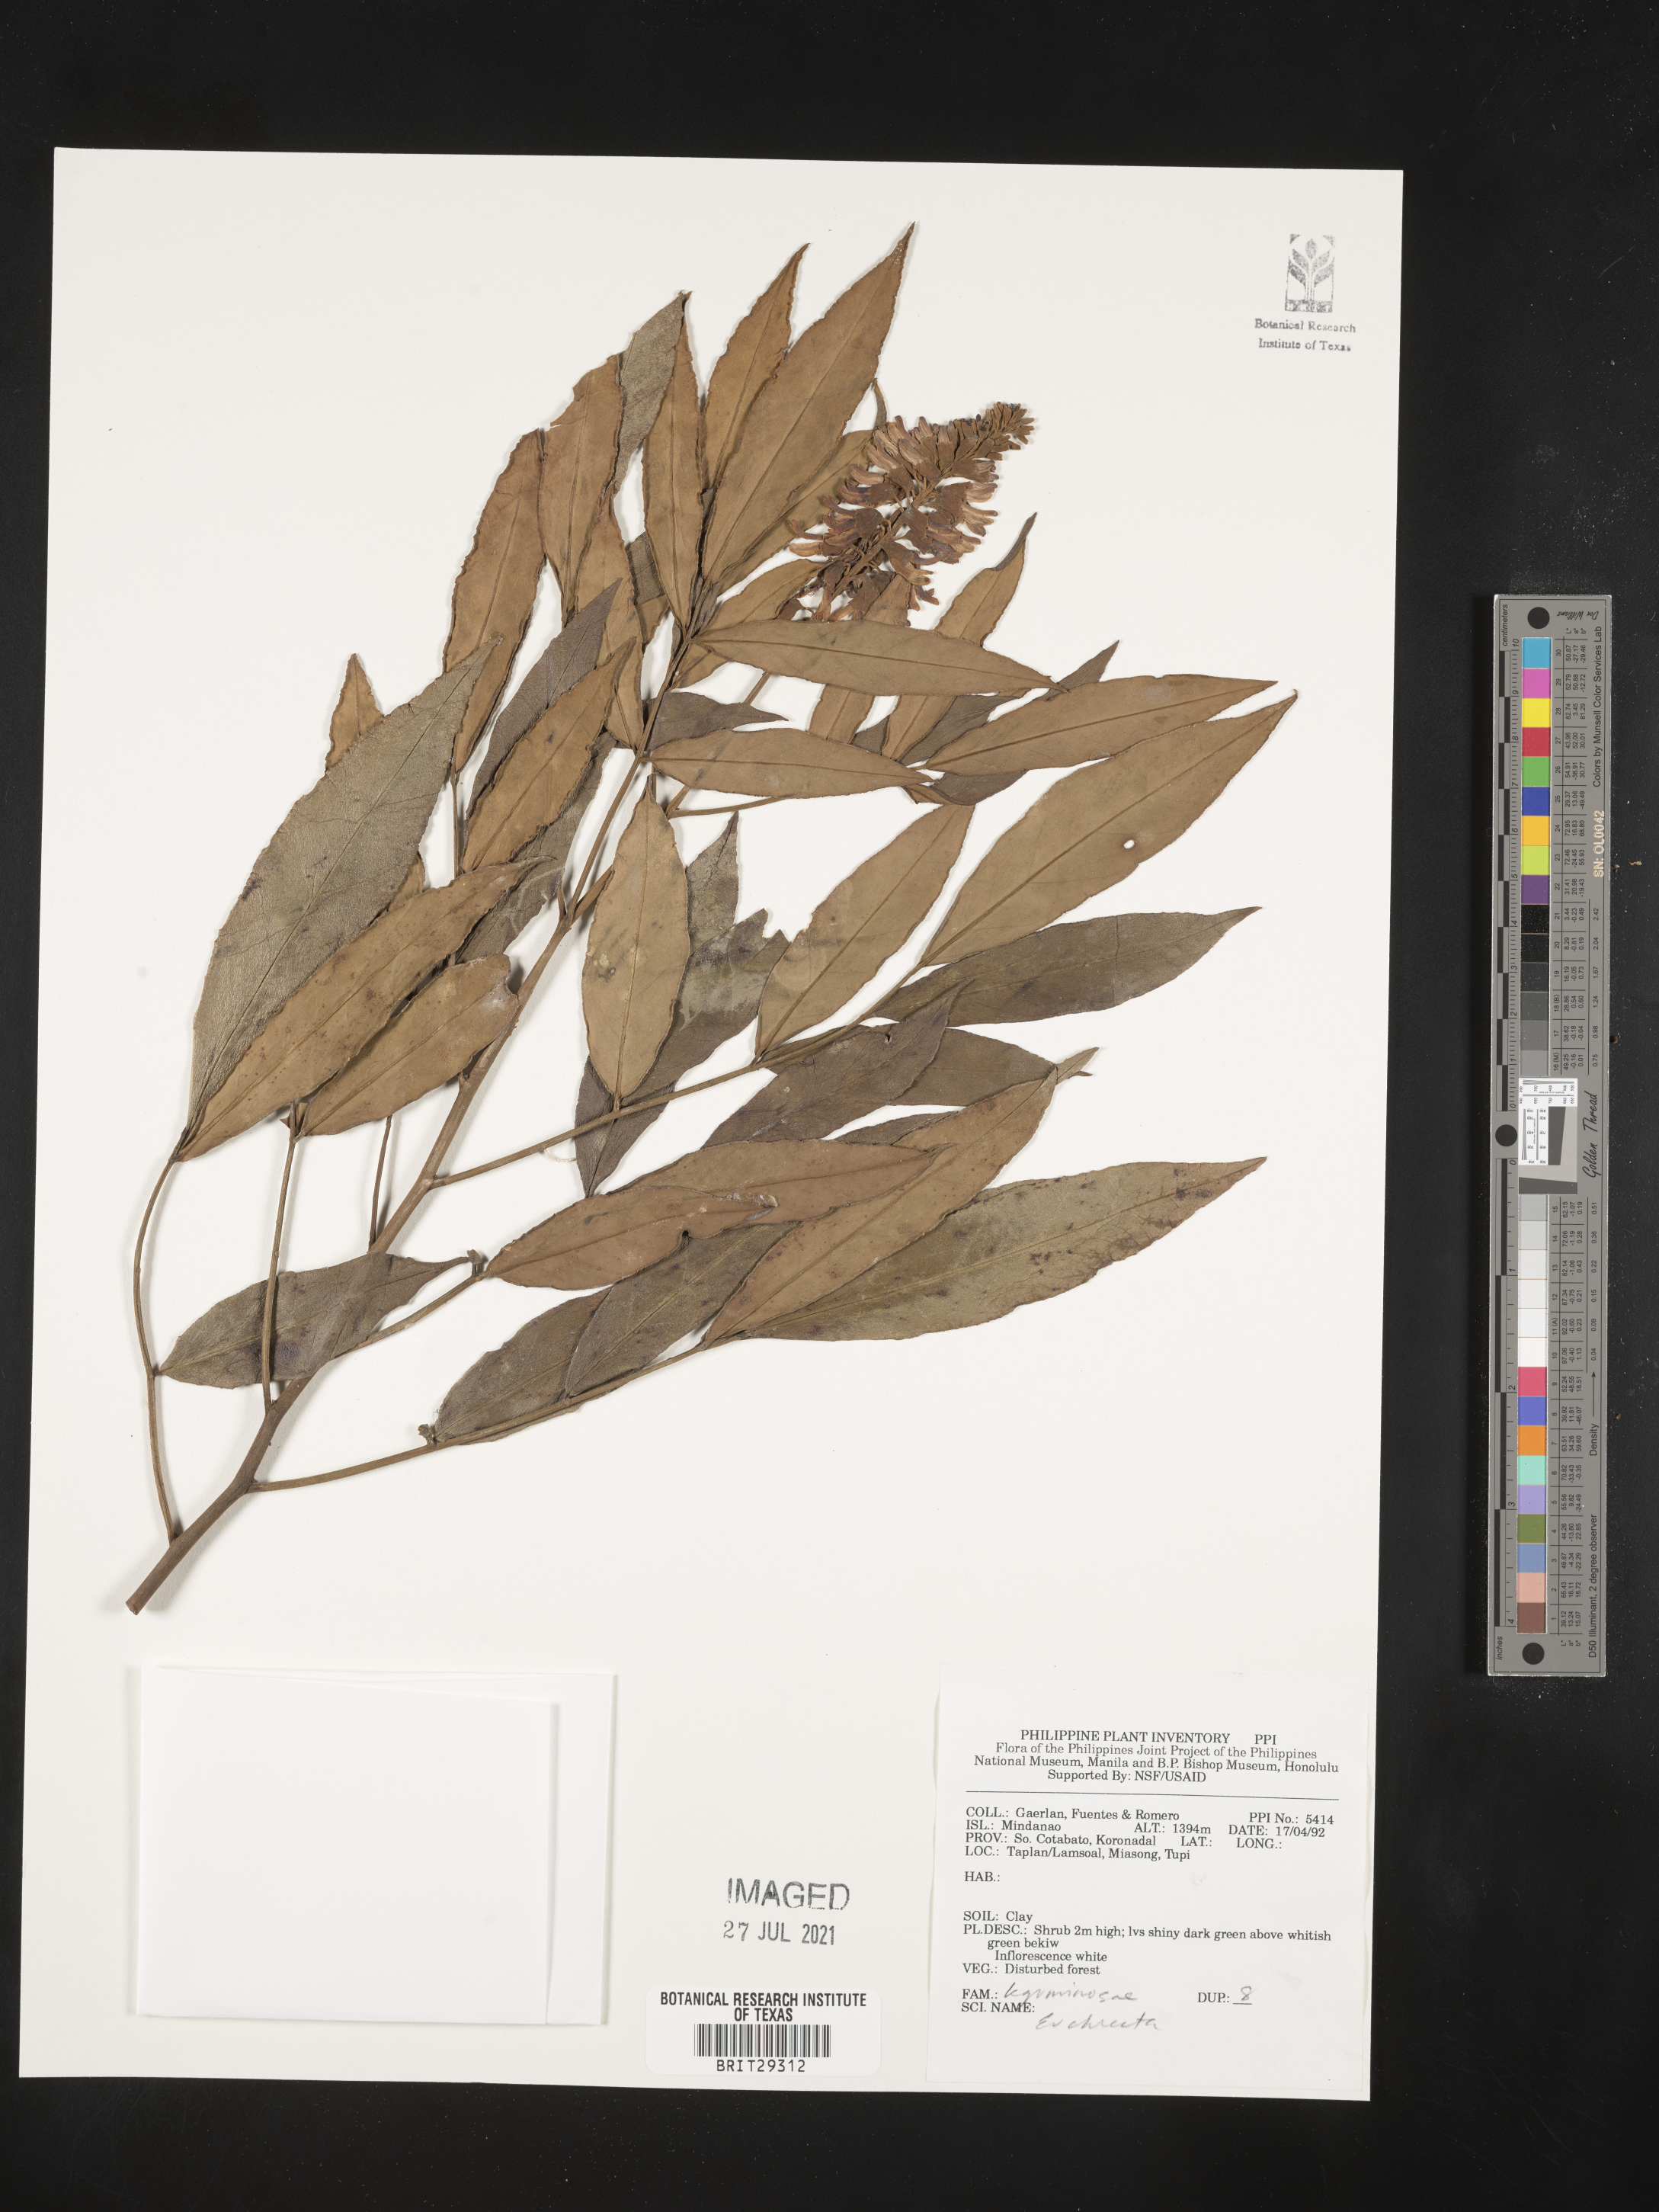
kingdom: Plantae
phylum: Tracheophyta
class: Magnoliopsida
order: Fabales
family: Fabaceae
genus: Euchresta
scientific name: Euchresta
